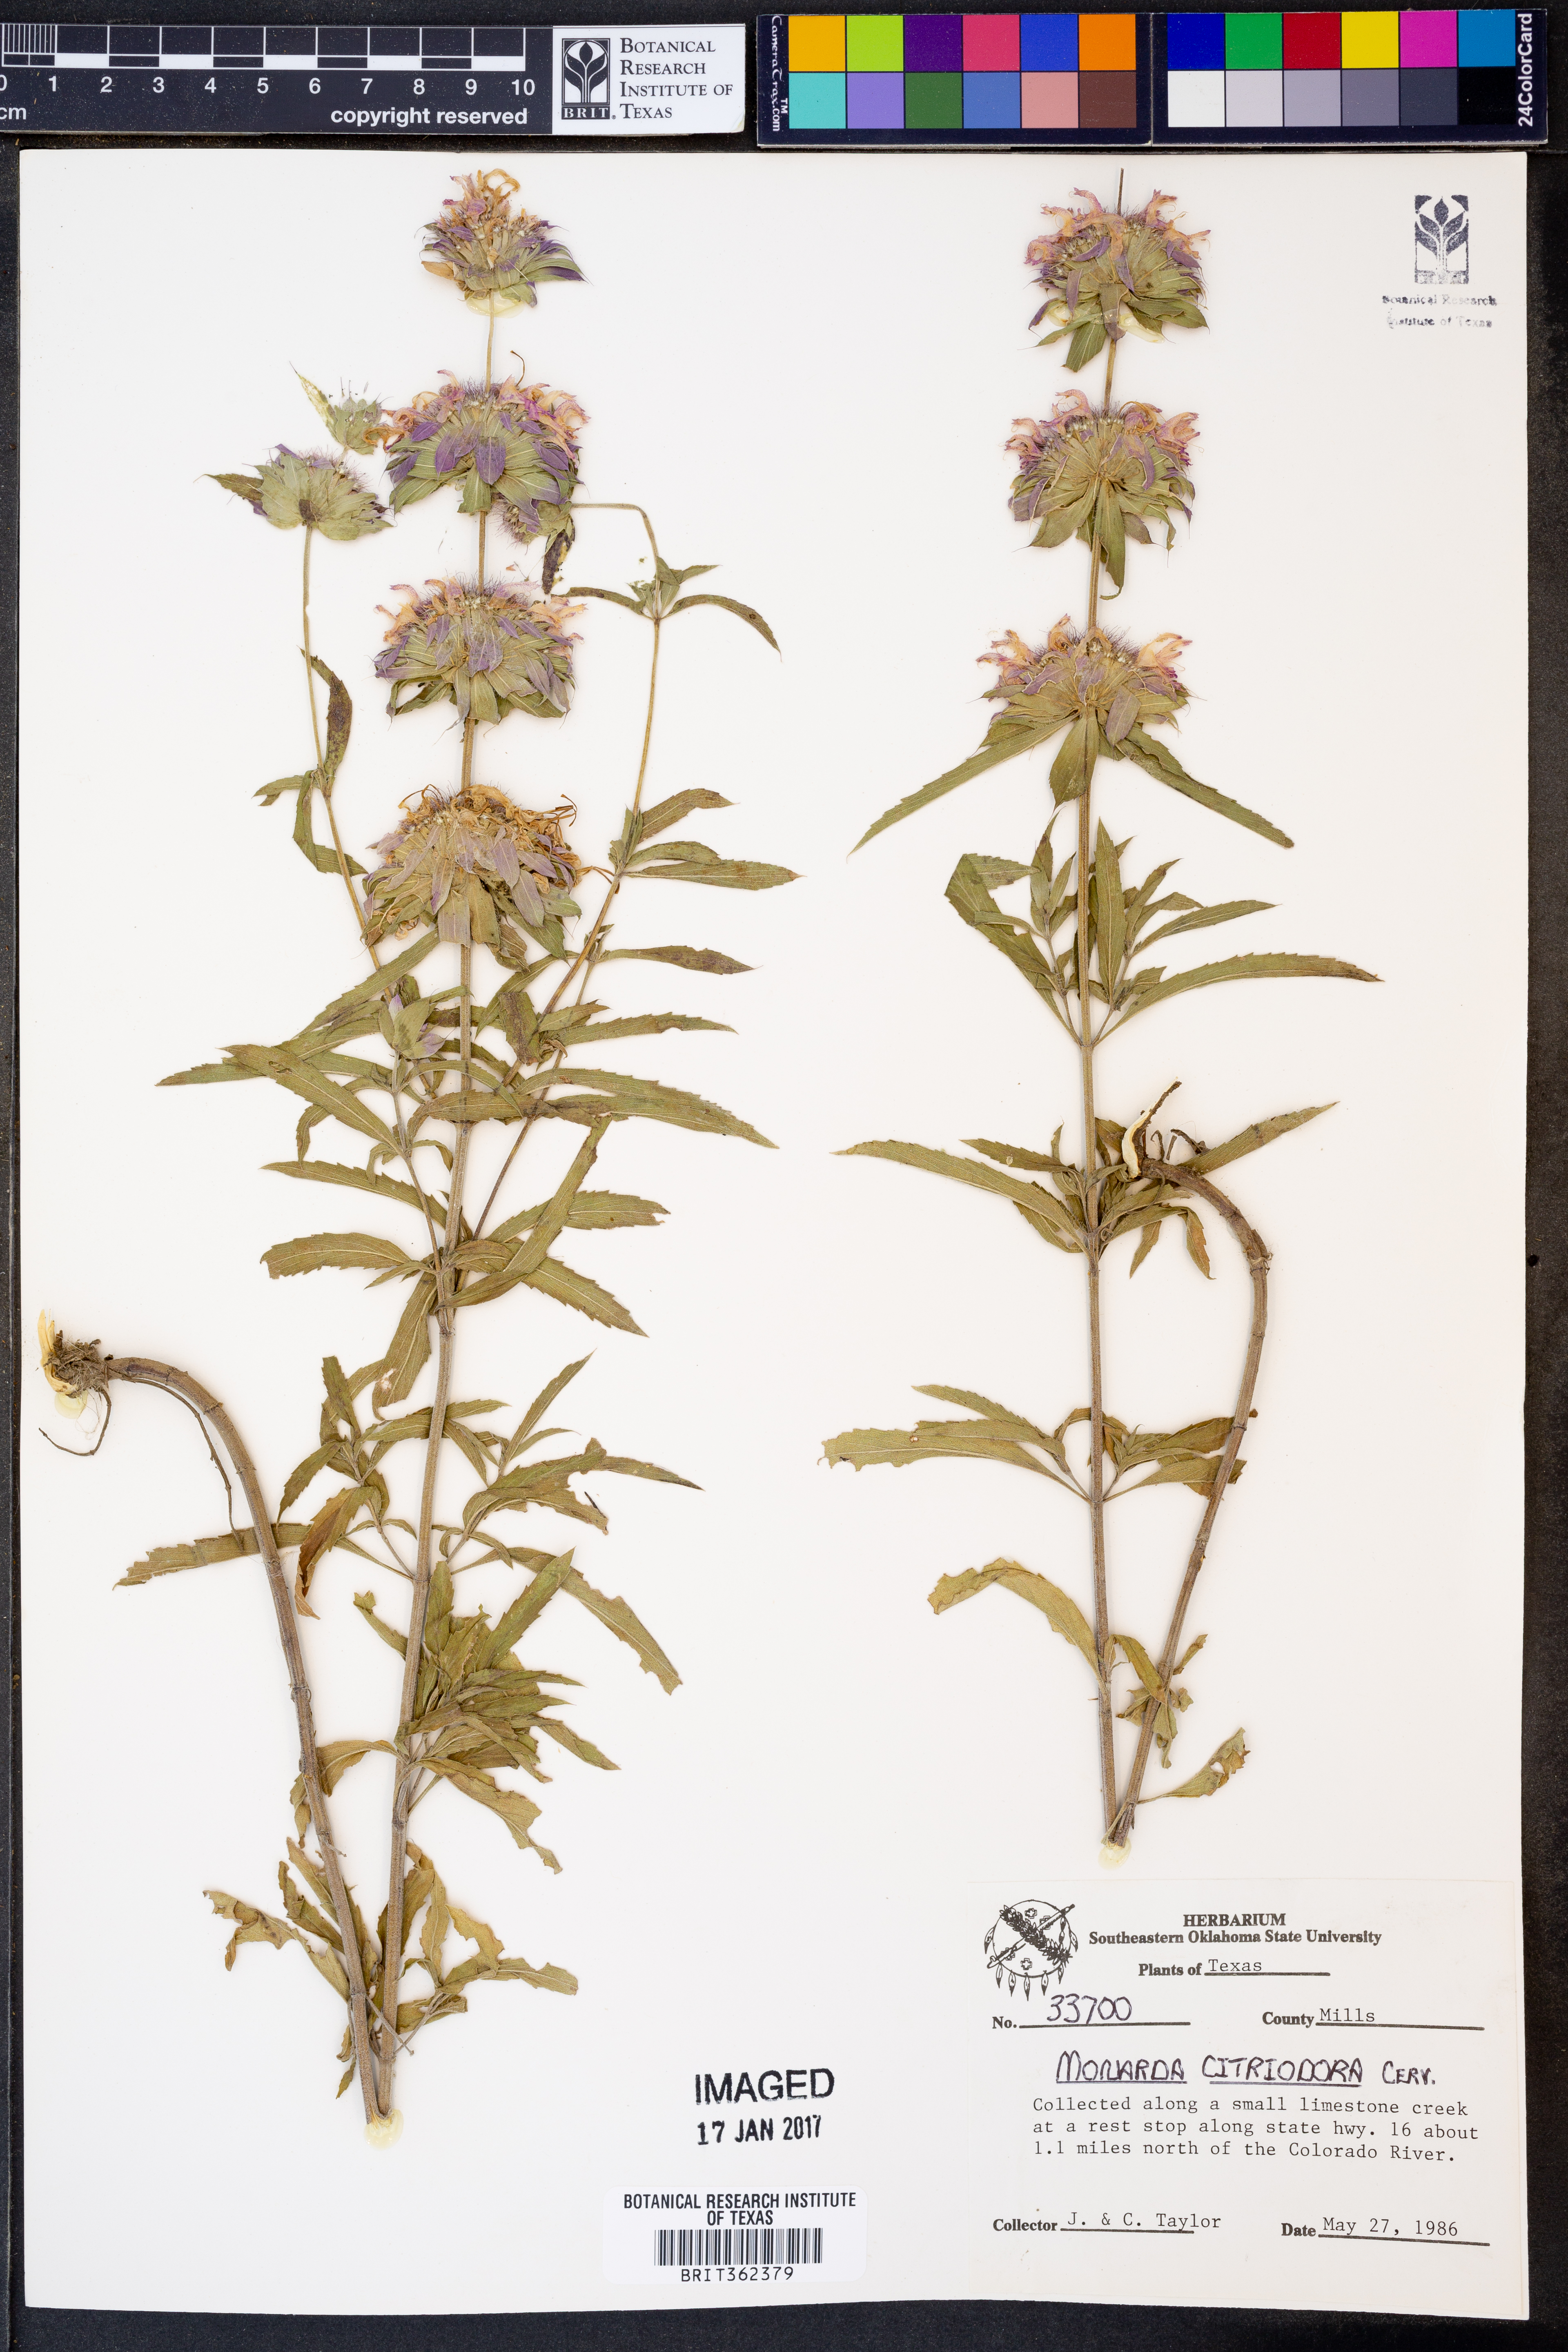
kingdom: Plantae
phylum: Tracheophyta
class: Magnoliopsida
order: Lamiales
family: Lamiaceae
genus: Monarda
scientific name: Monarda citriodora
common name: Lemon beebalm
